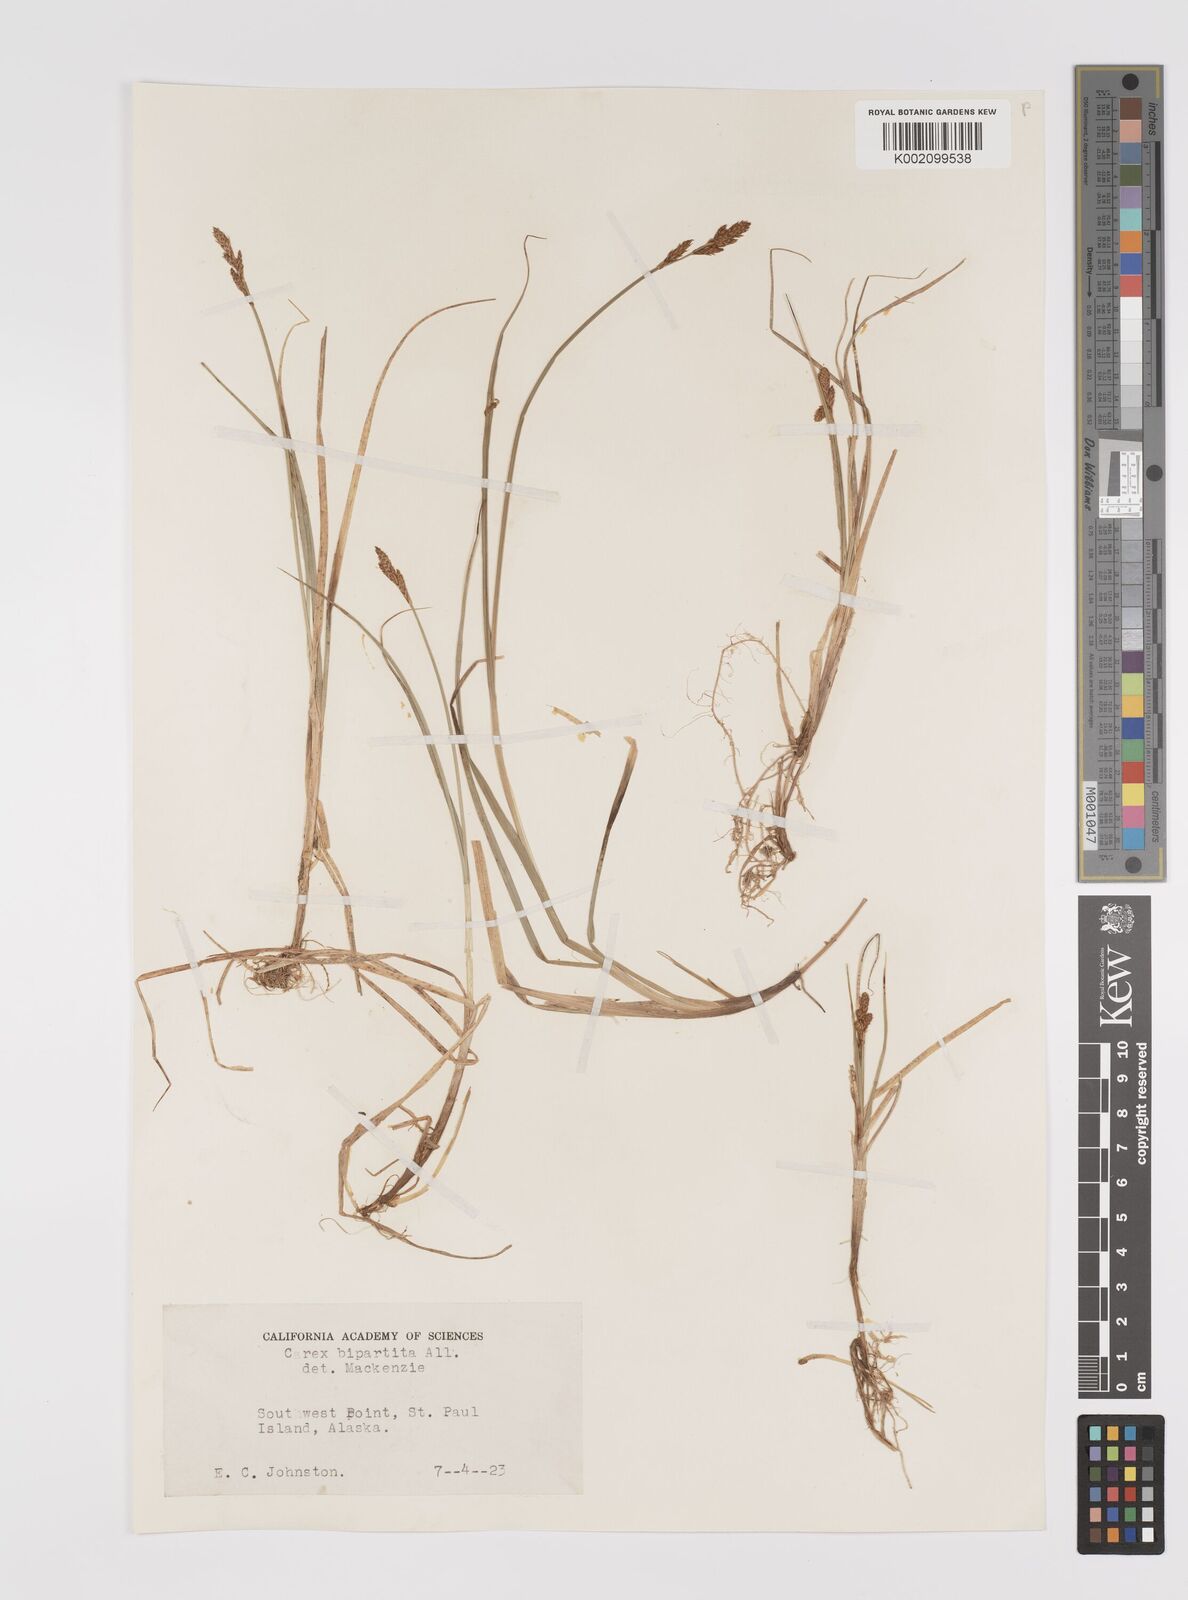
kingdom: Plantae
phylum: Tracheophyta
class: Liliopsida
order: Poales
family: Cyperaceae
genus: Carex
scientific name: Carex lachenalii
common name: Hare's-foot sedge
